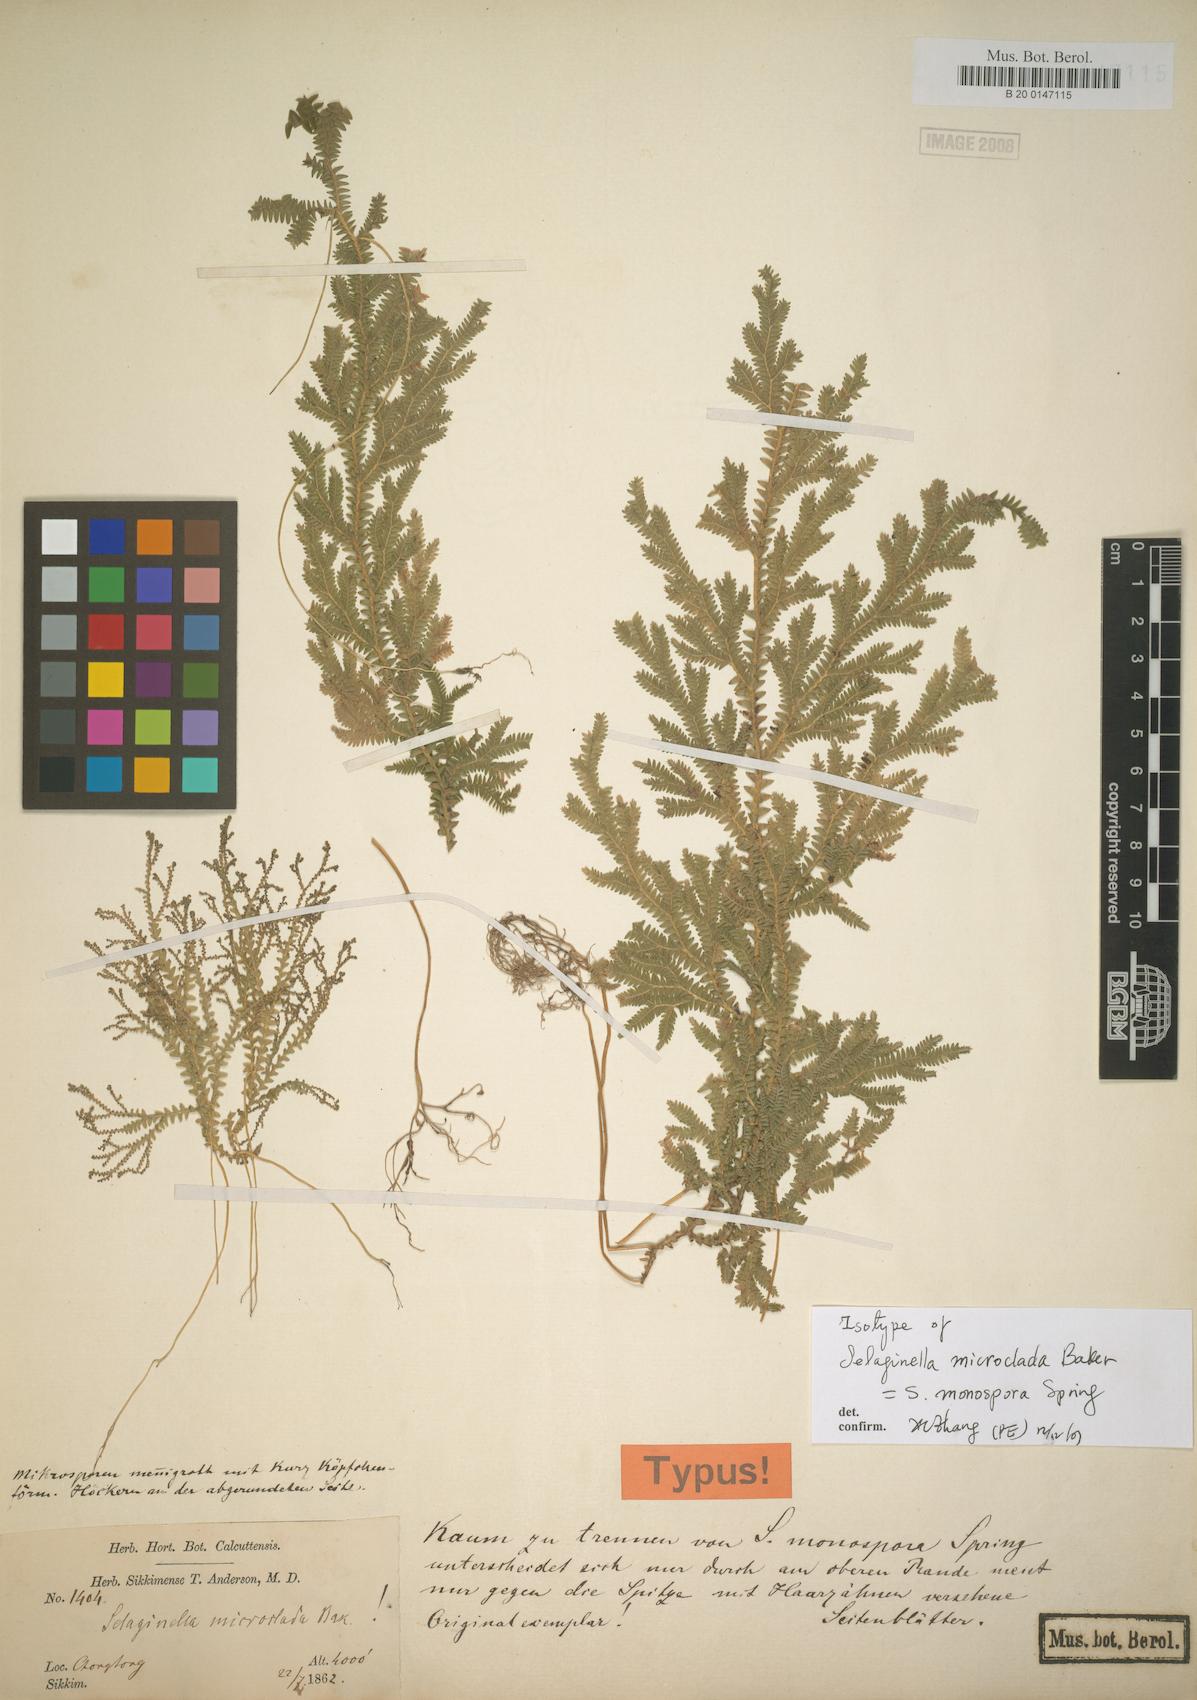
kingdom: Plantae
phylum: Tracheophyta
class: Lycopodiopsida
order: Selaginellales
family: Selaginellaceae
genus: Selaginella
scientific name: Selaginella parkeri
